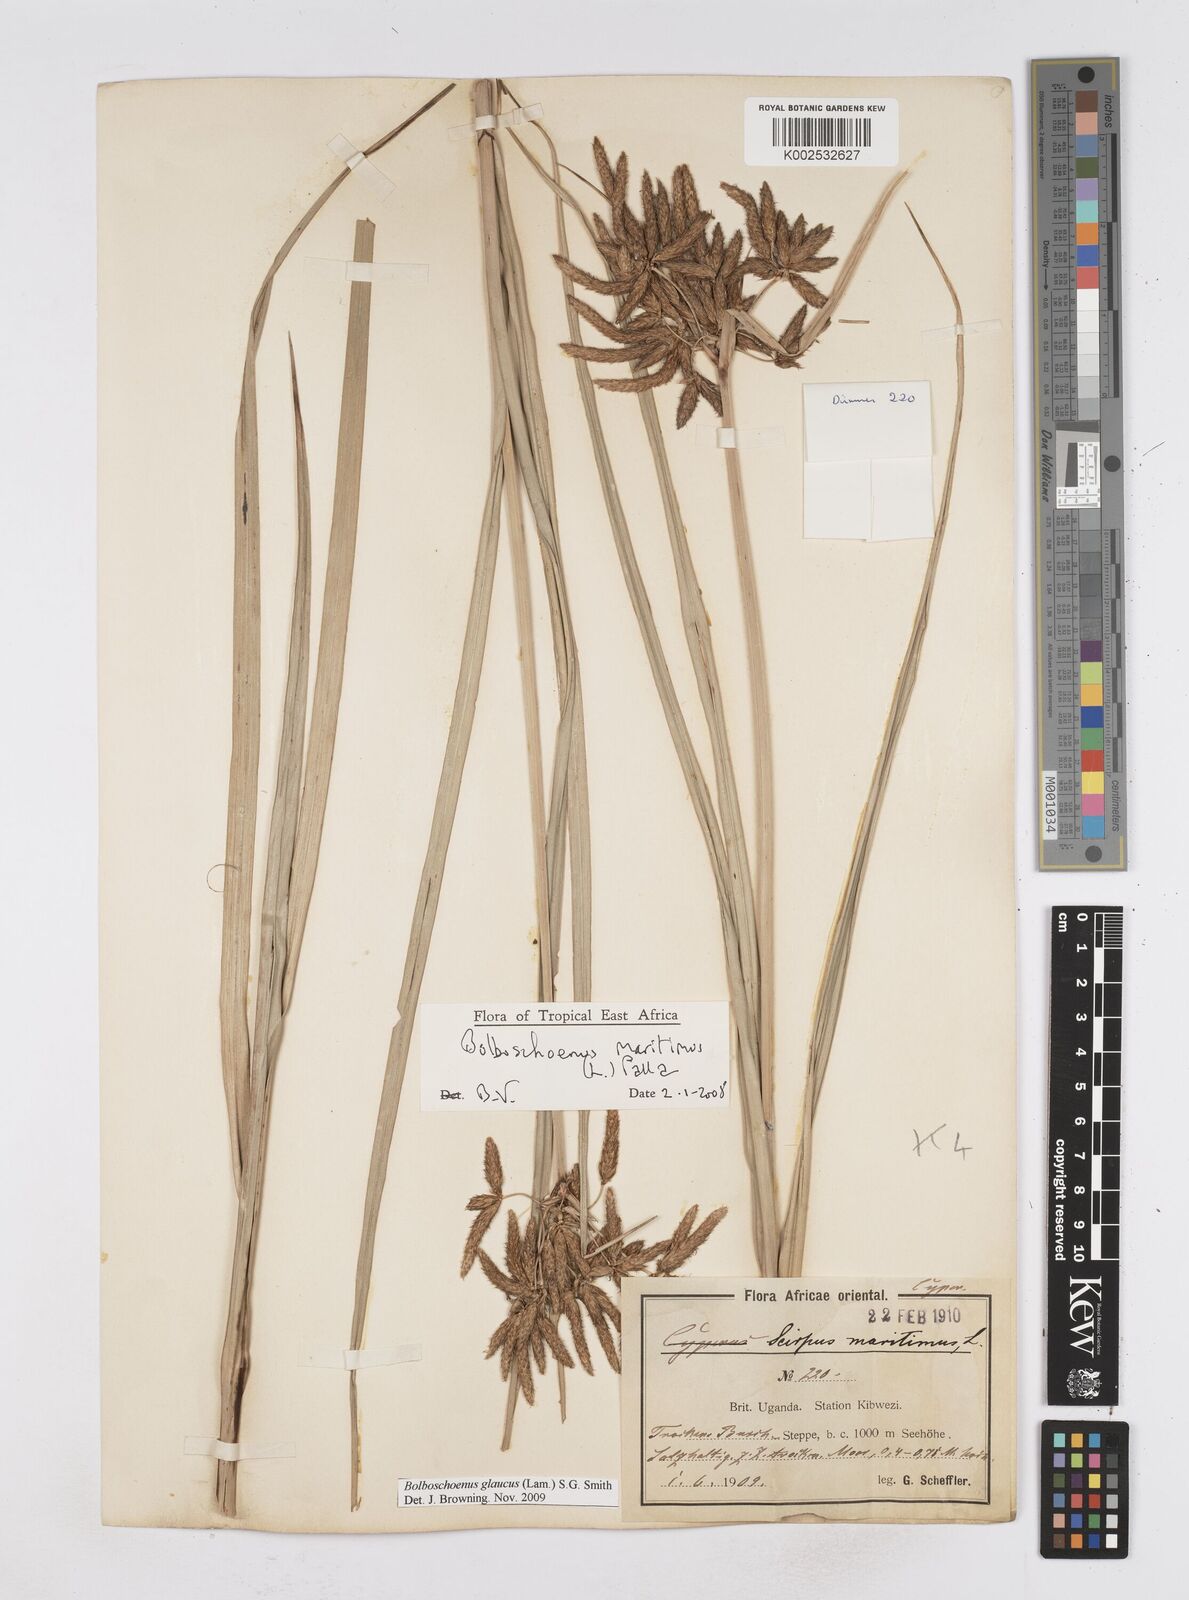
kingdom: Plantae
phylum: Tracheophyta
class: Liliopsida
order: Poales
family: Cyperaceae
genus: Bolboschoenus
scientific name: Bolboschoenus glaucus
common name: Tuberous bulrush
